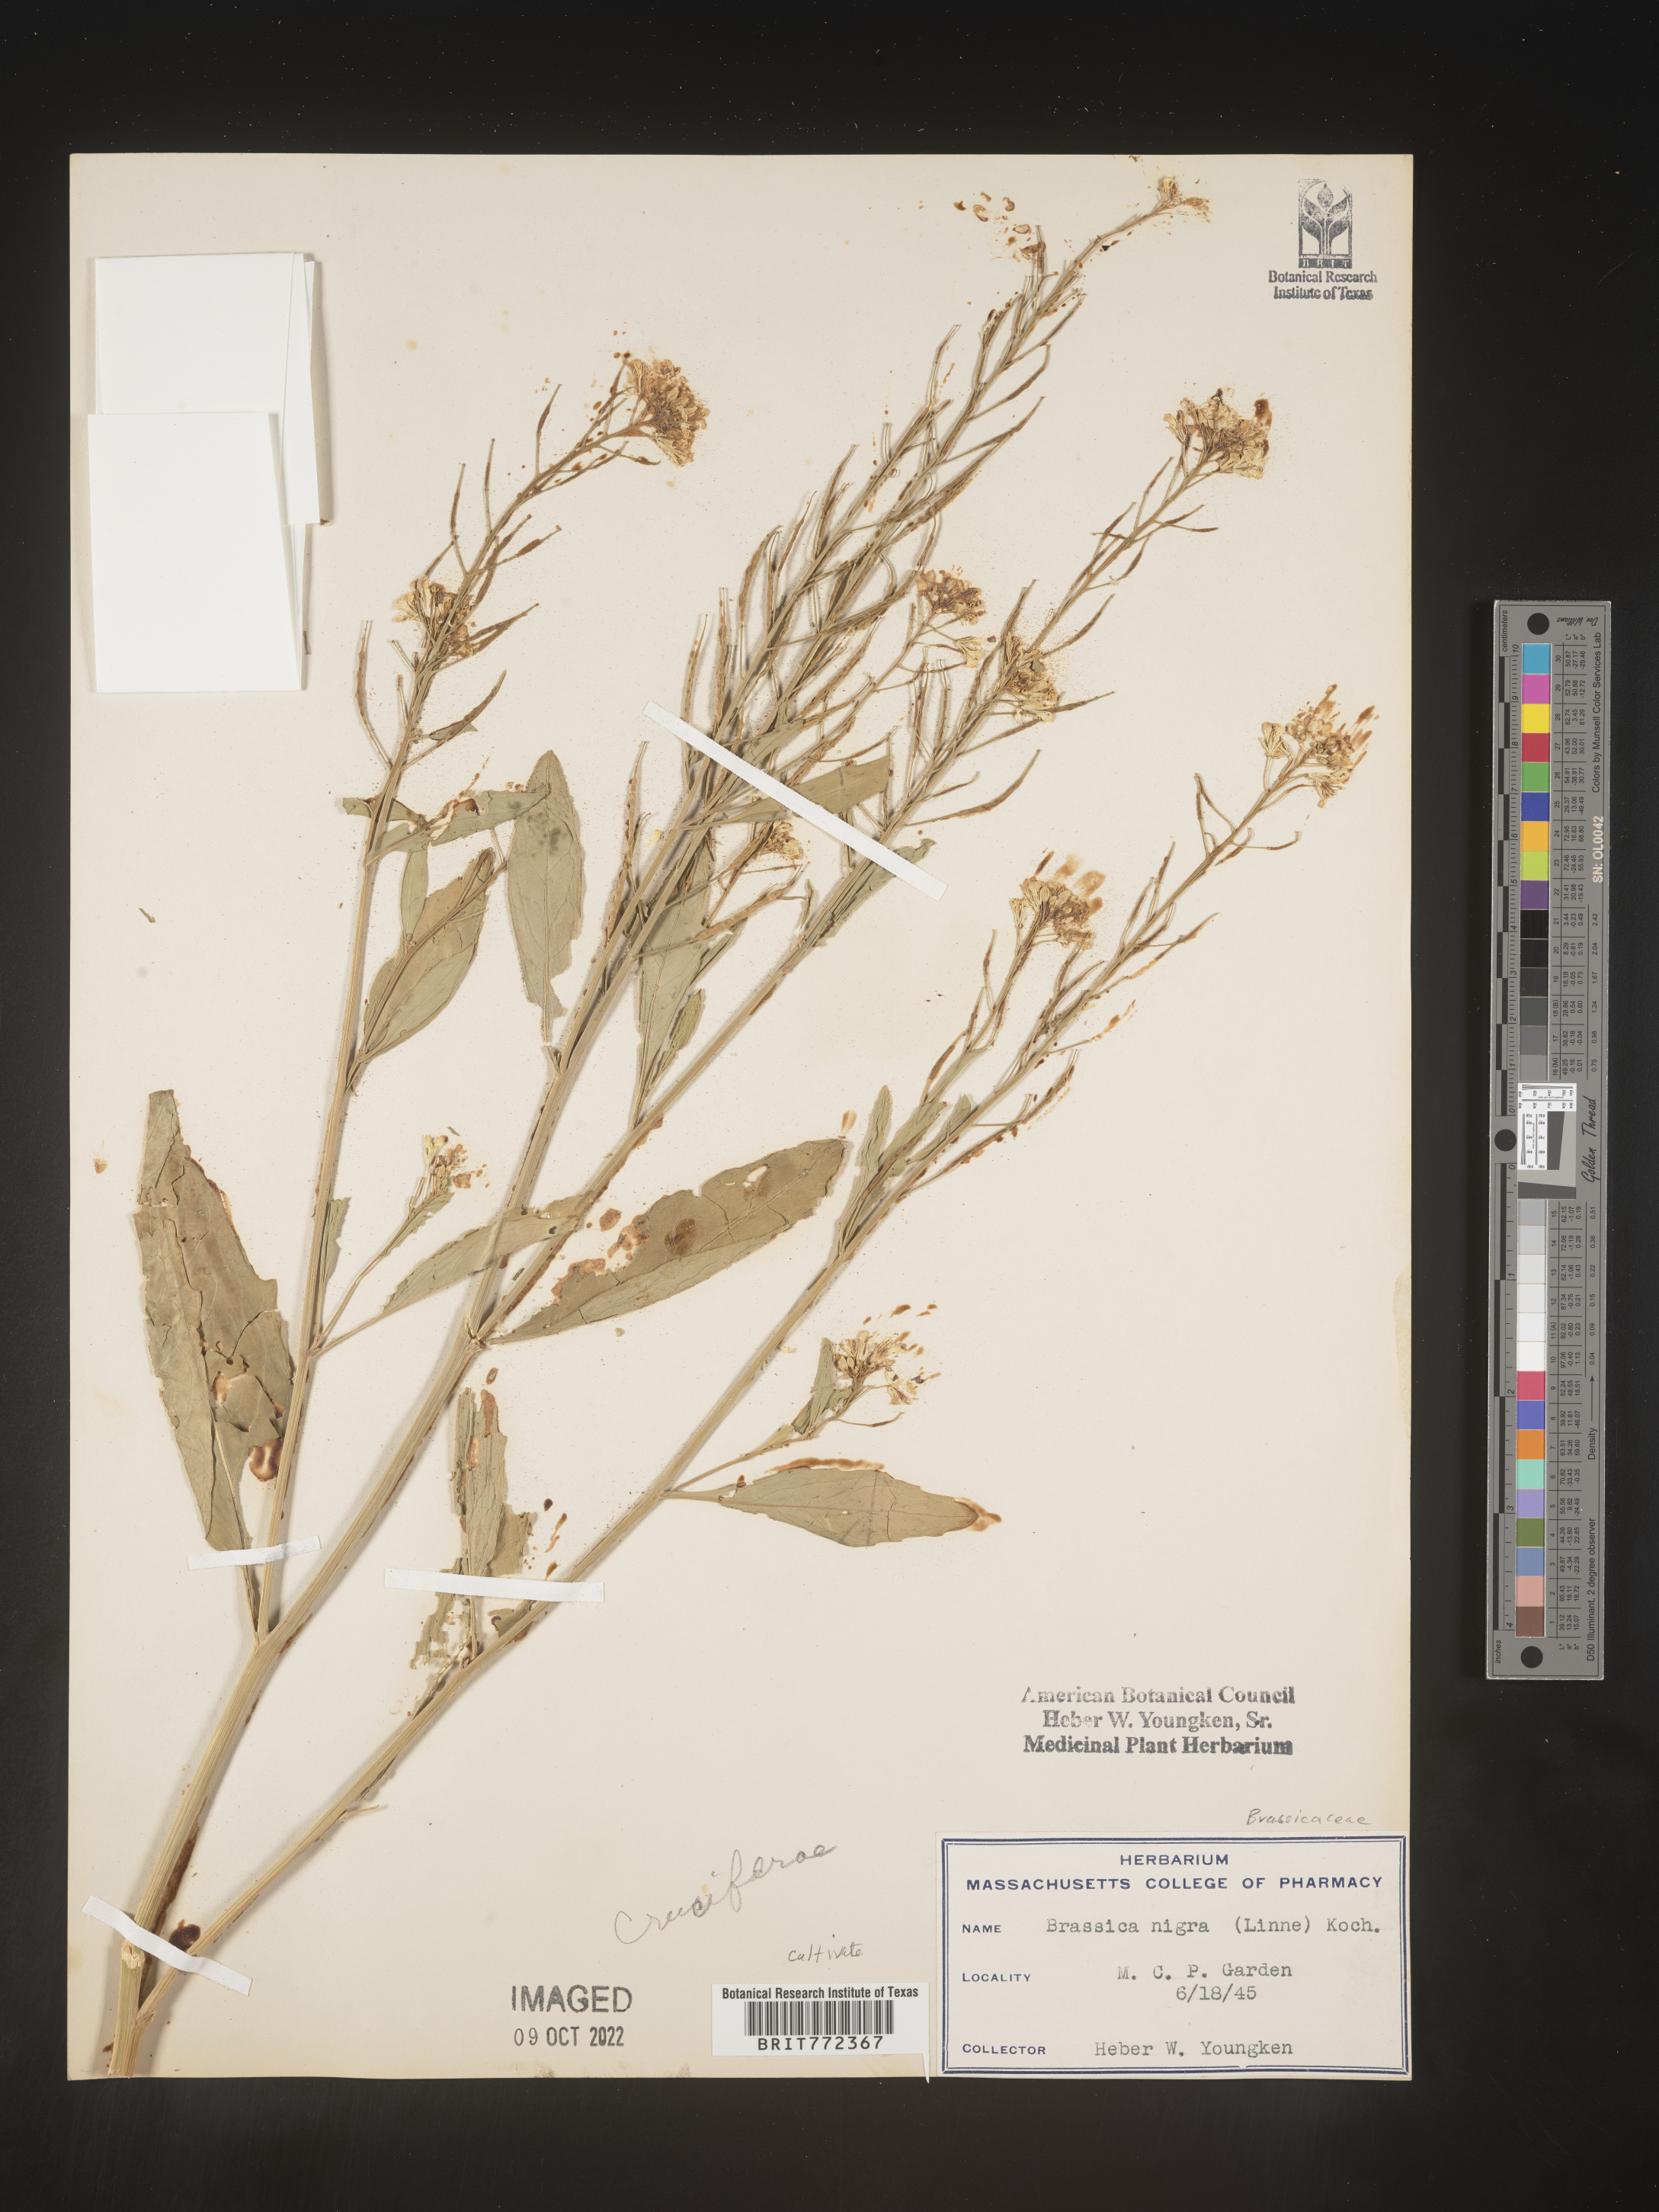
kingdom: Plantae
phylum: Tracheophyta
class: Magnoliopsida
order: Brassicales
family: Brassicaceae
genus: Brassica
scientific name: Brassica
